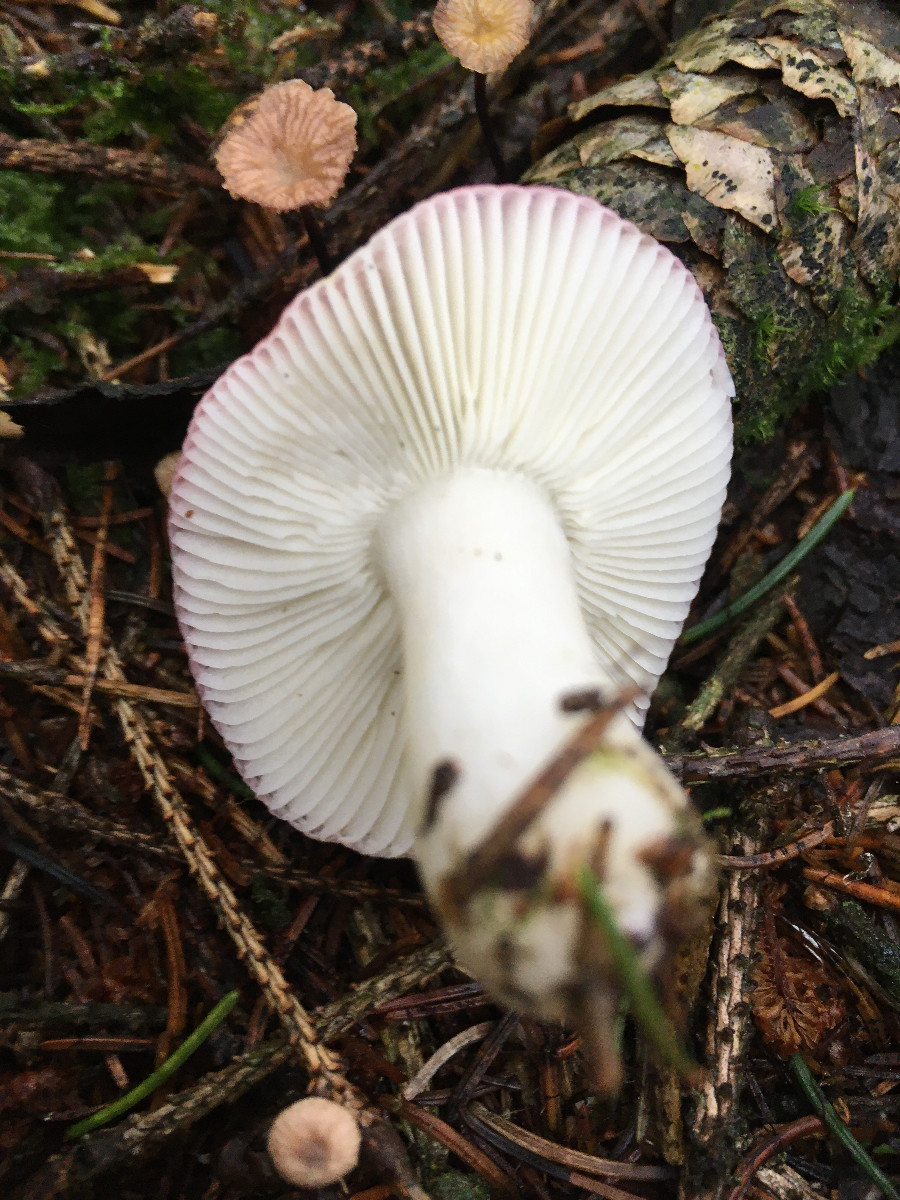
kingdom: Fungi
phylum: Basidiomycota
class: Agaricomycetes
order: Russulales
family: Russulaceae
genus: Russula
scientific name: Russula fragilis
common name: Fragile brittlegill
